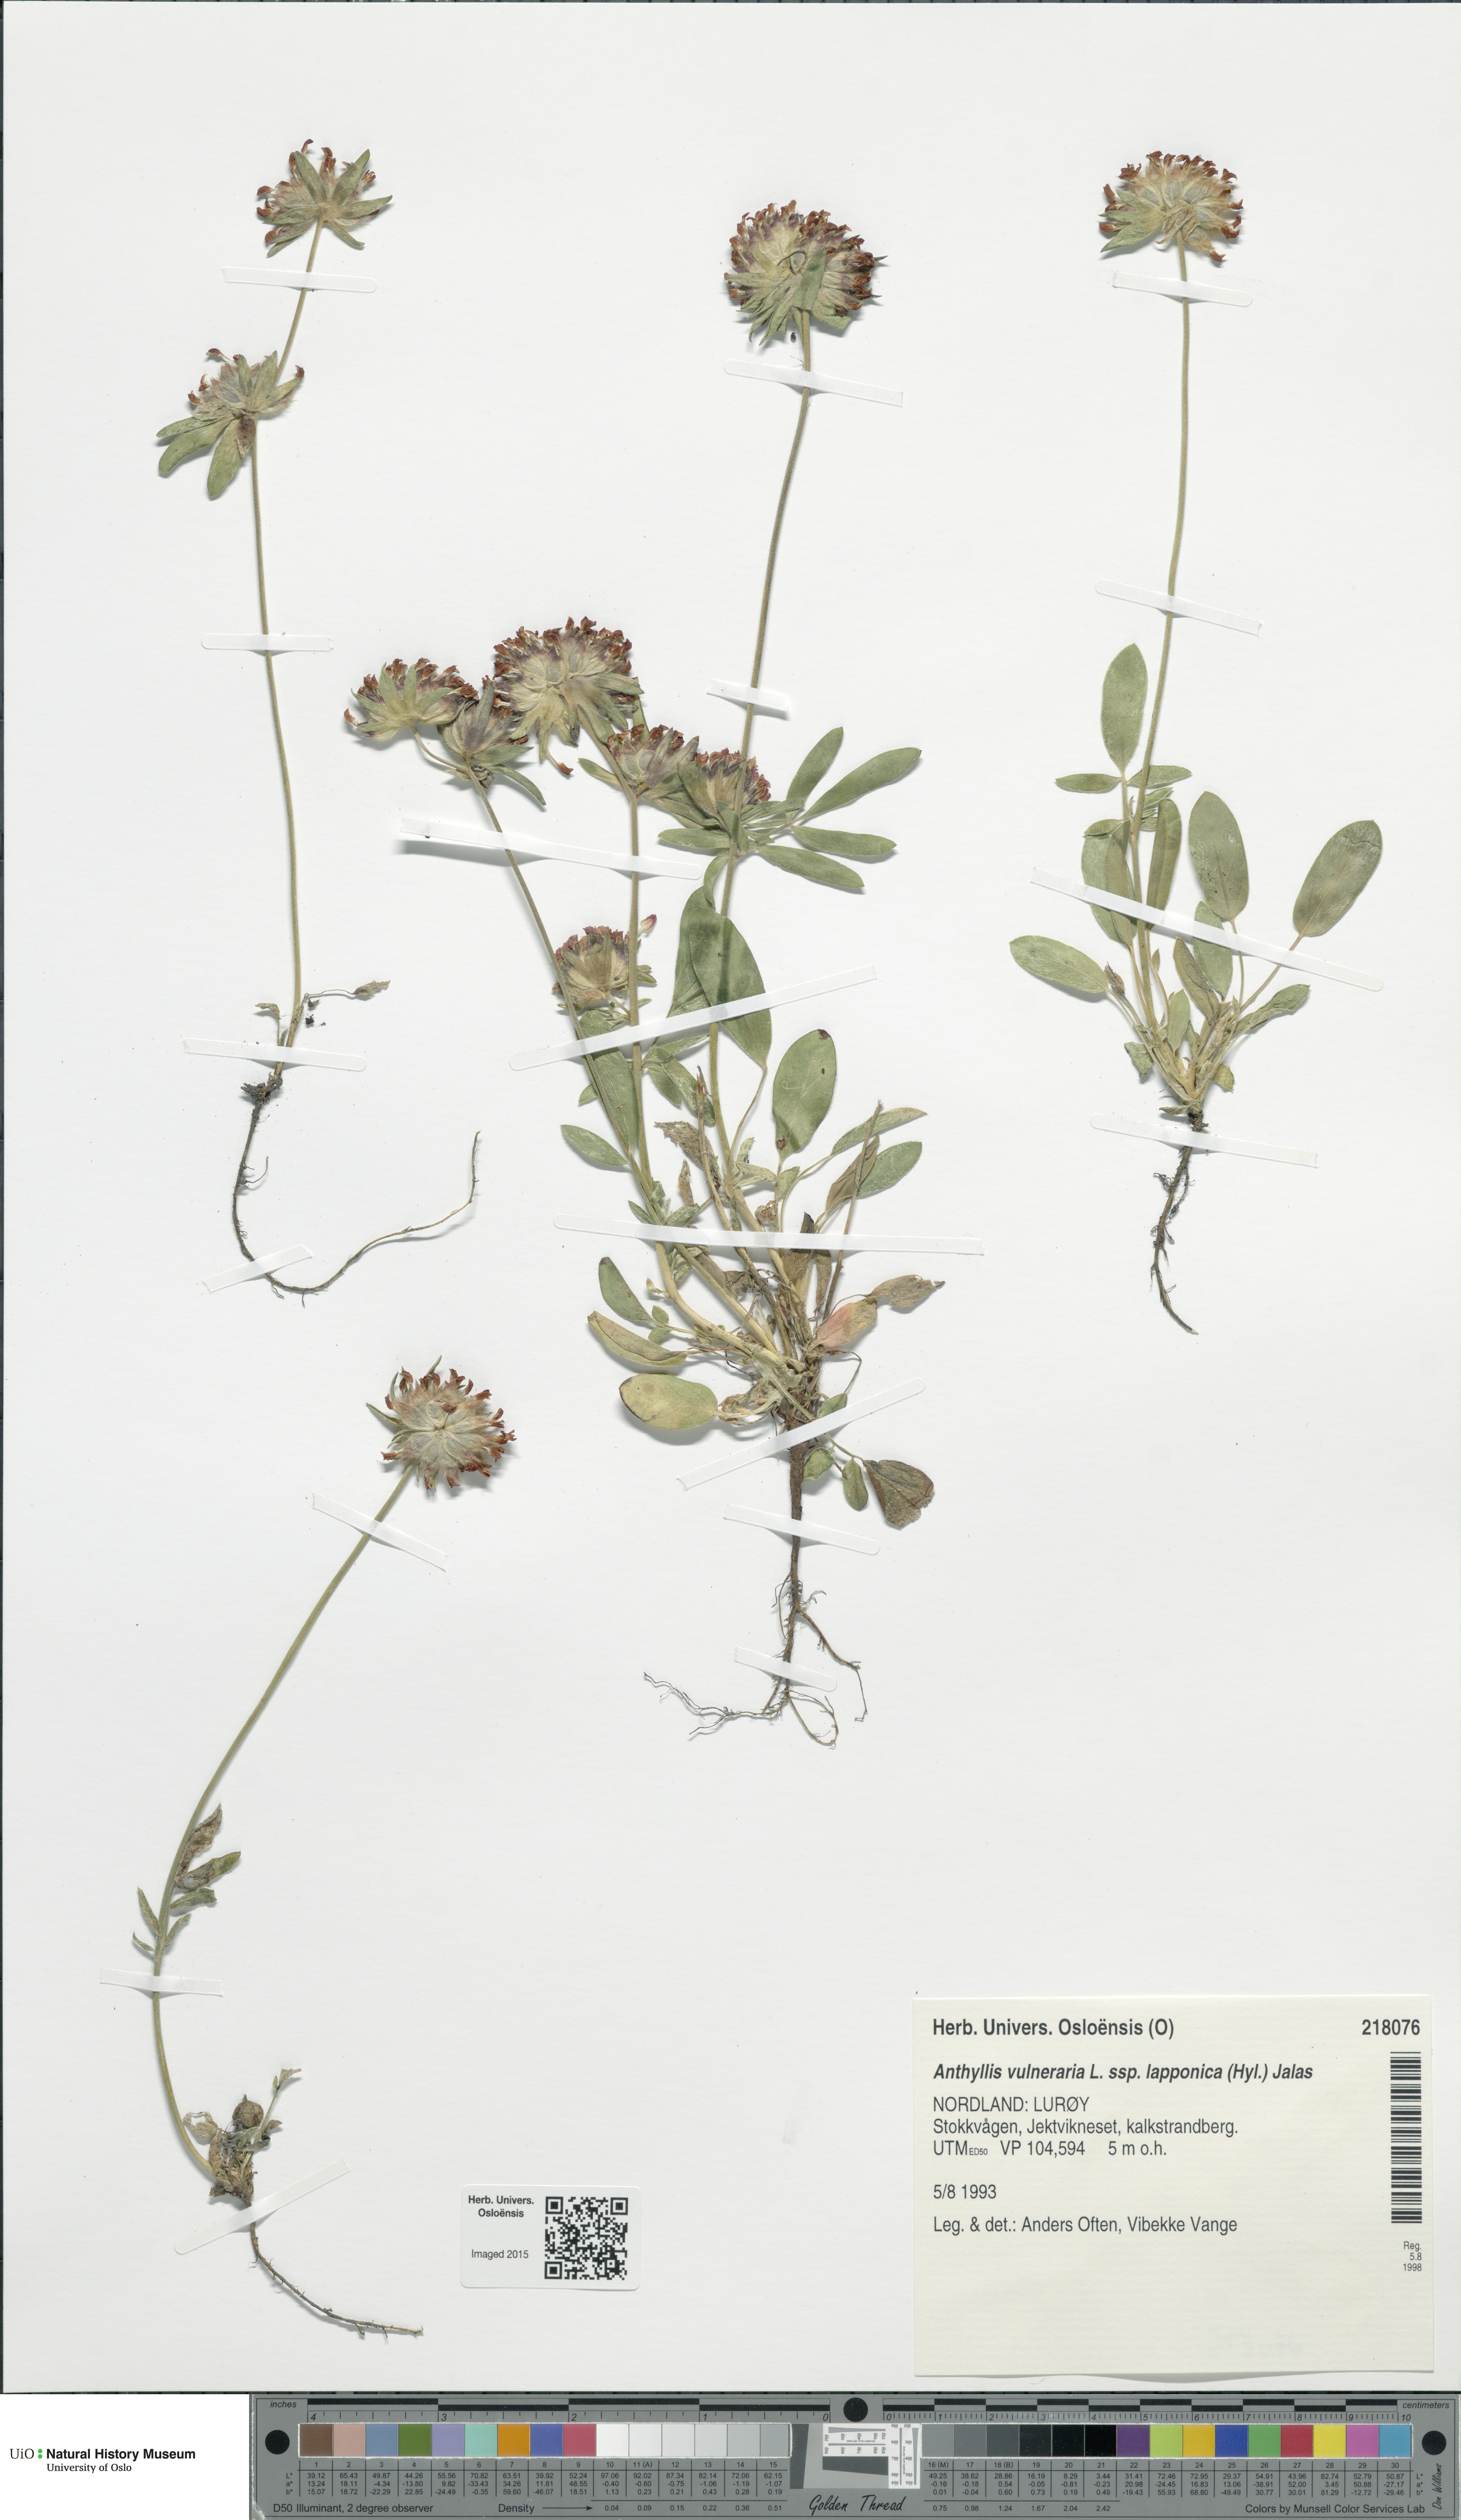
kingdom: Plantae
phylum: Tracheophyta
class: Magnoliopsida
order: Fabales
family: Fabaceae
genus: Anthyllis
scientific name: Anthyllis vulneraria
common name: Kidney vetch
